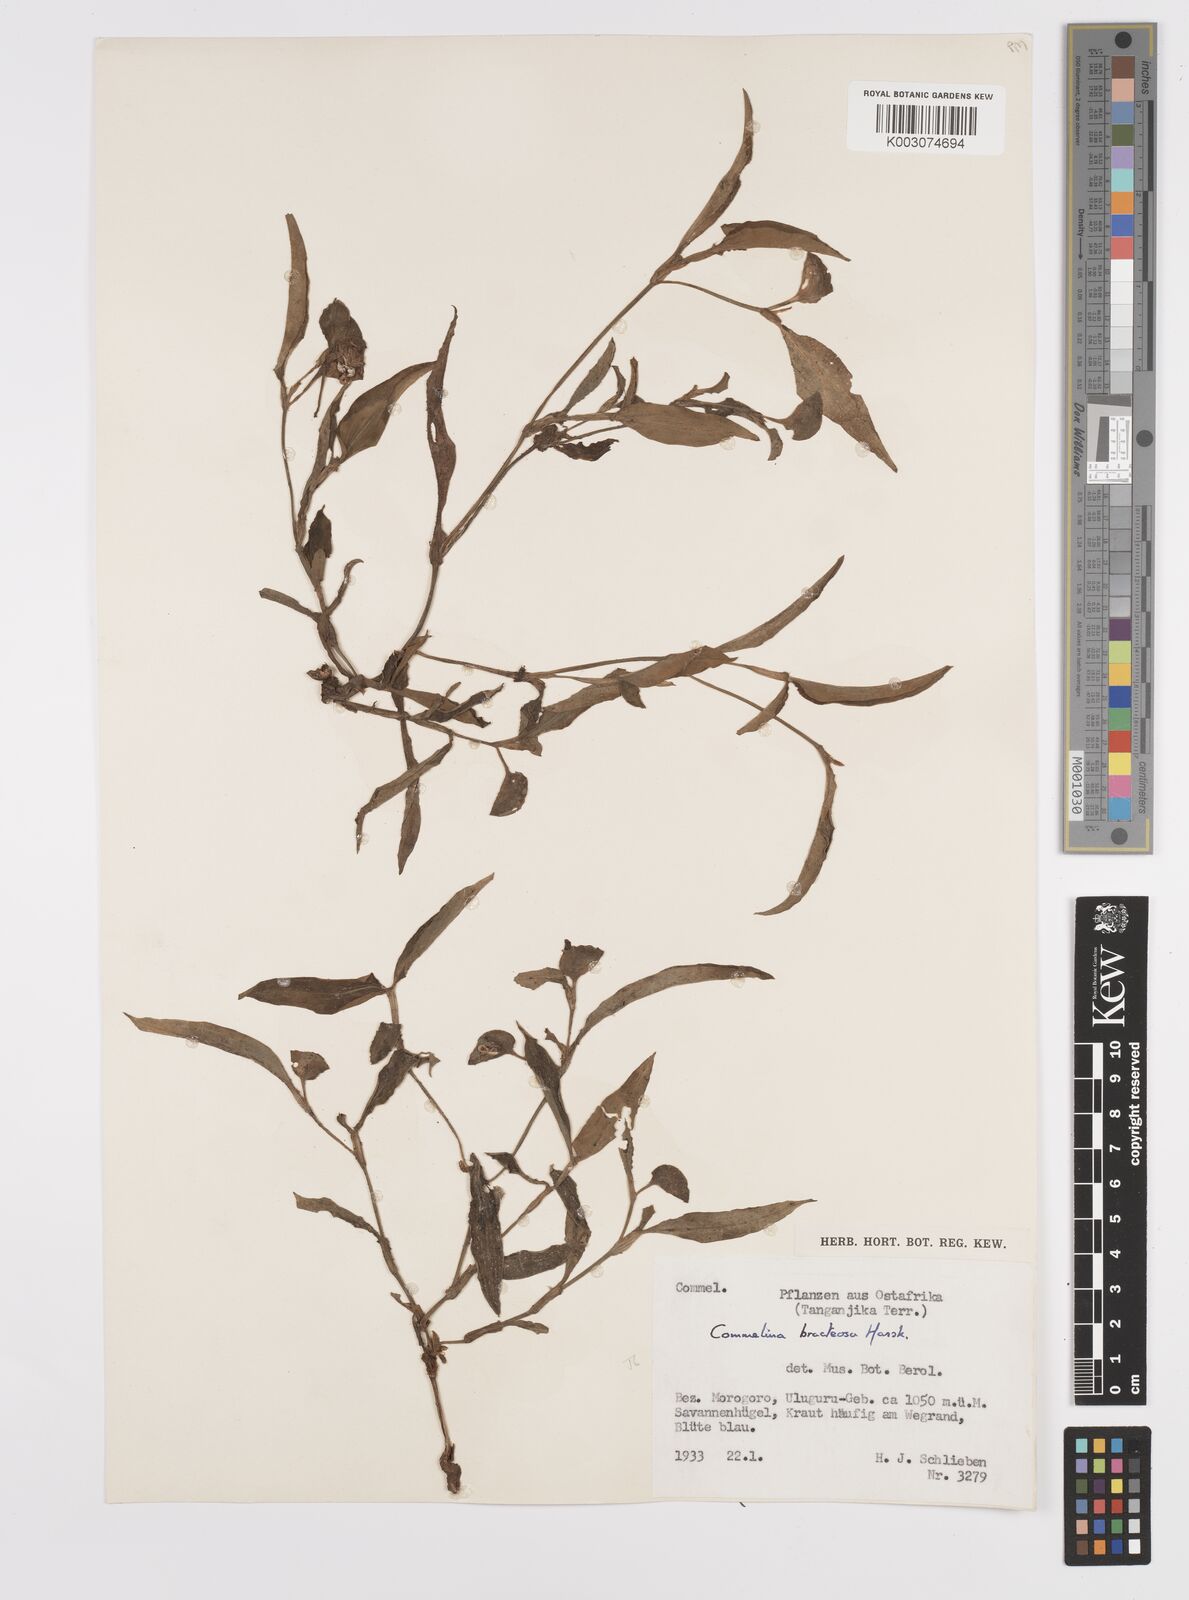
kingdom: Plantae
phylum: Tracheophyta
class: Liliopsida
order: Commelinales
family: Commelinaceae
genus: Commelina
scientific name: Commelina bracteosa
